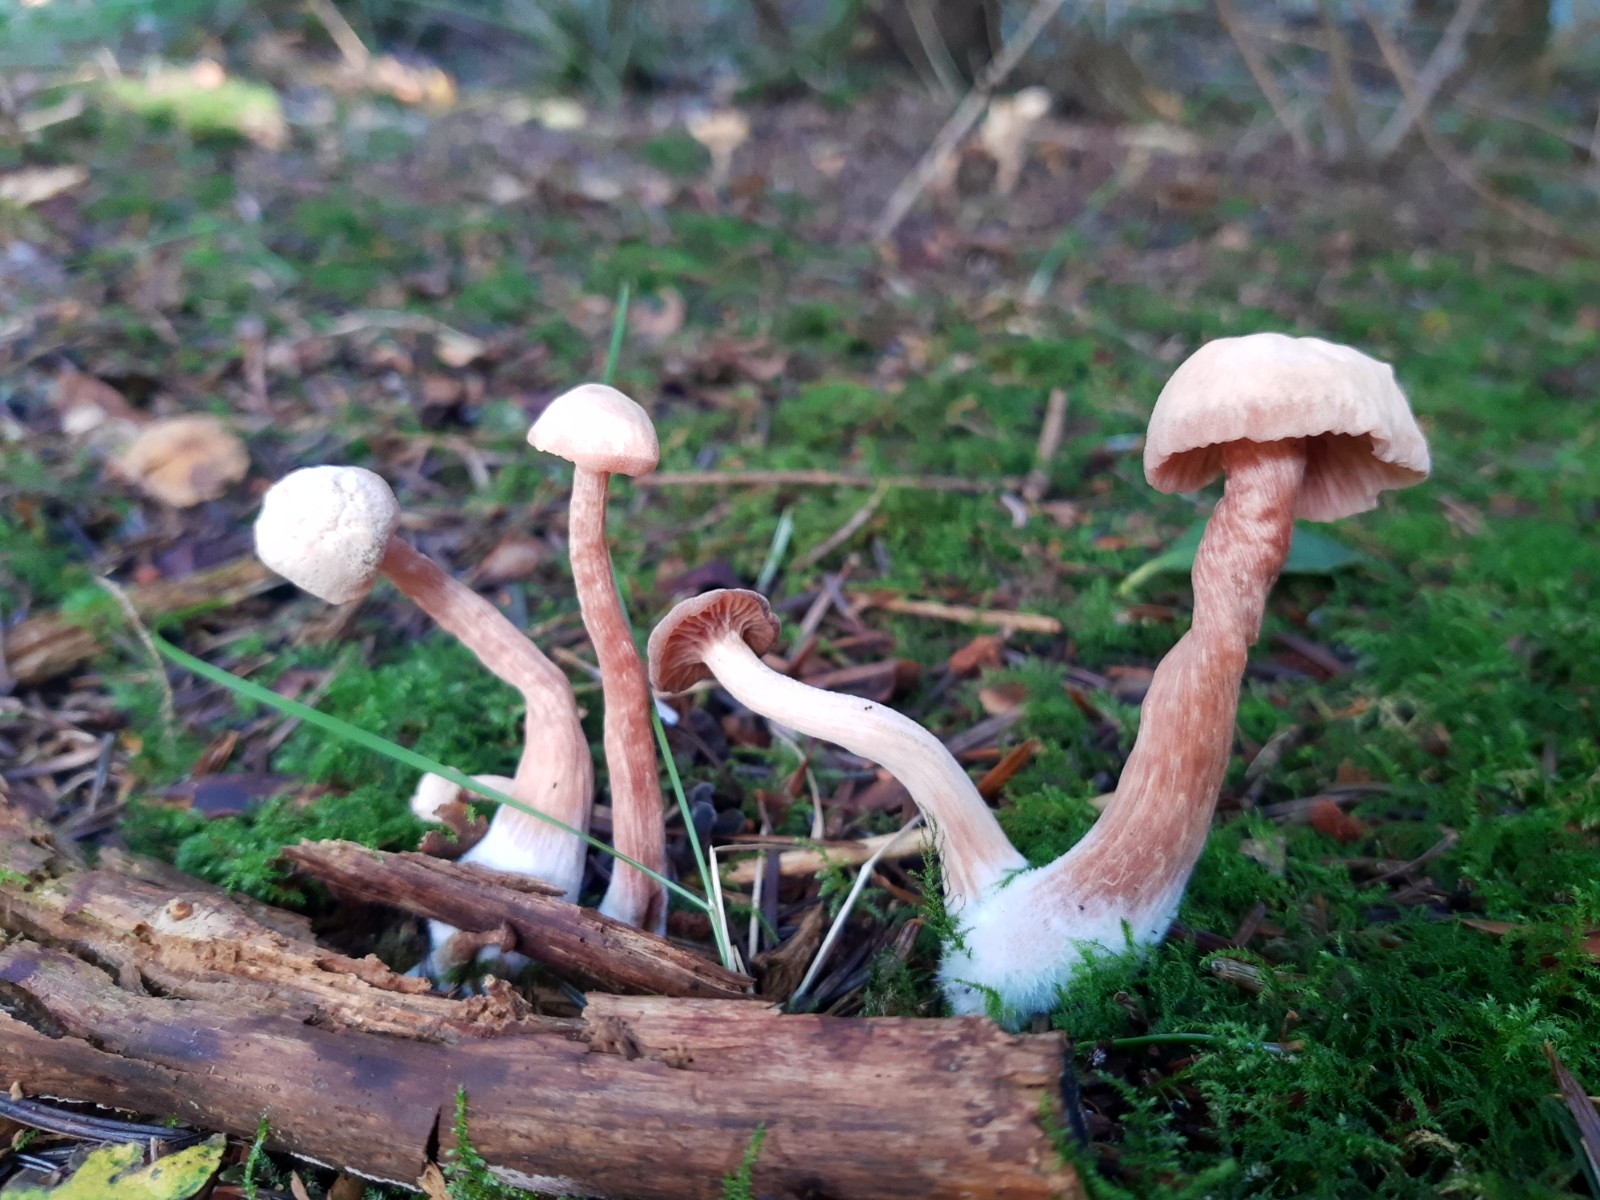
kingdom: Fungi
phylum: Basidiomycota
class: Agaricomycetes
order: Agaricales
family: Hydnangiaceae
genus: Laccaria
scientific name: Laccaria proxima
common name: stor ametysthat
